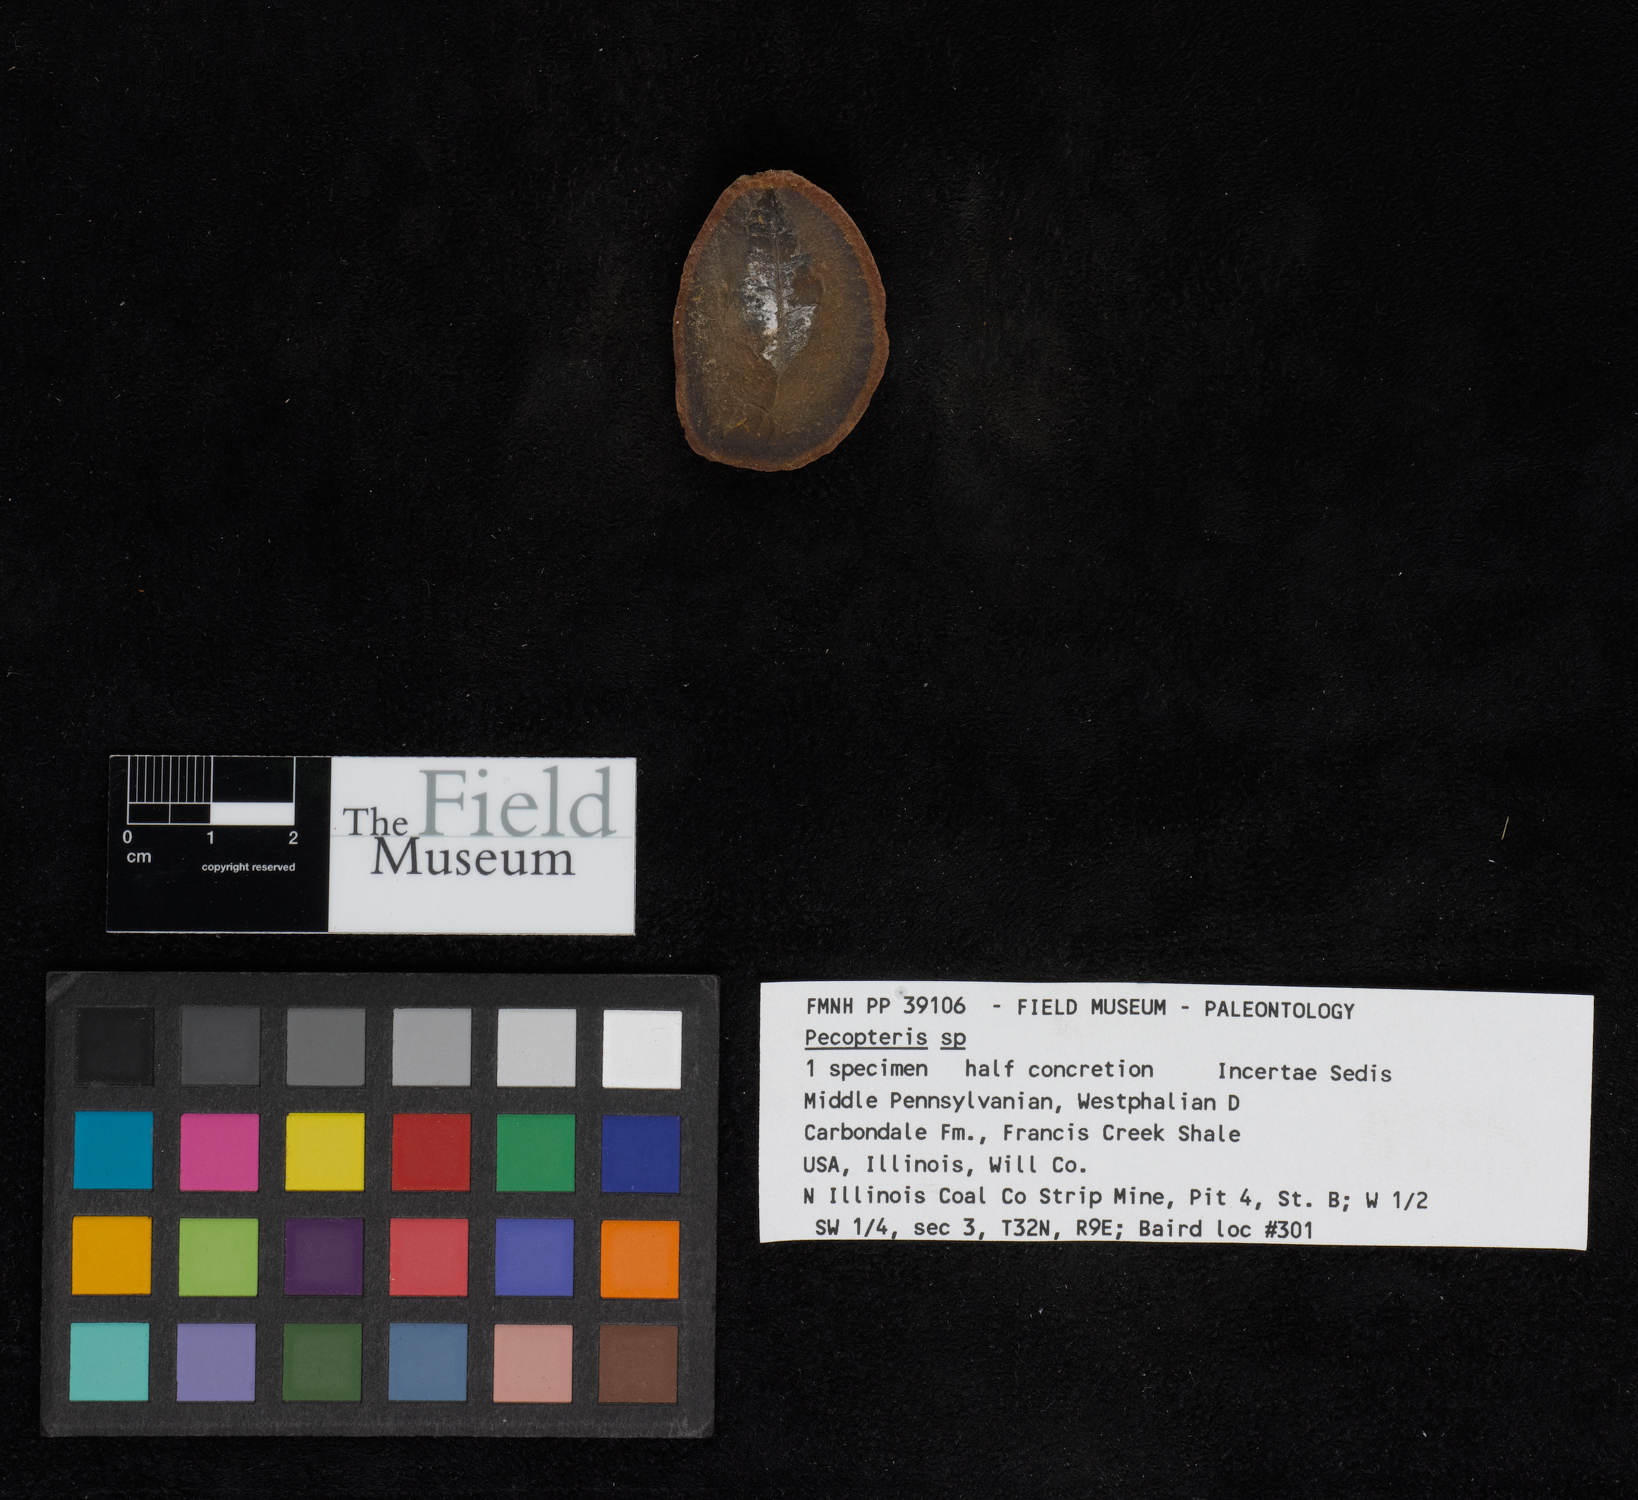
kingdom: Plantae
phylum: Tracheophyta
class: Polypodiopsida
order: Marattiales
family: Asterothecaceae
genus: Pecopteris
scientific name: Pecopteris
